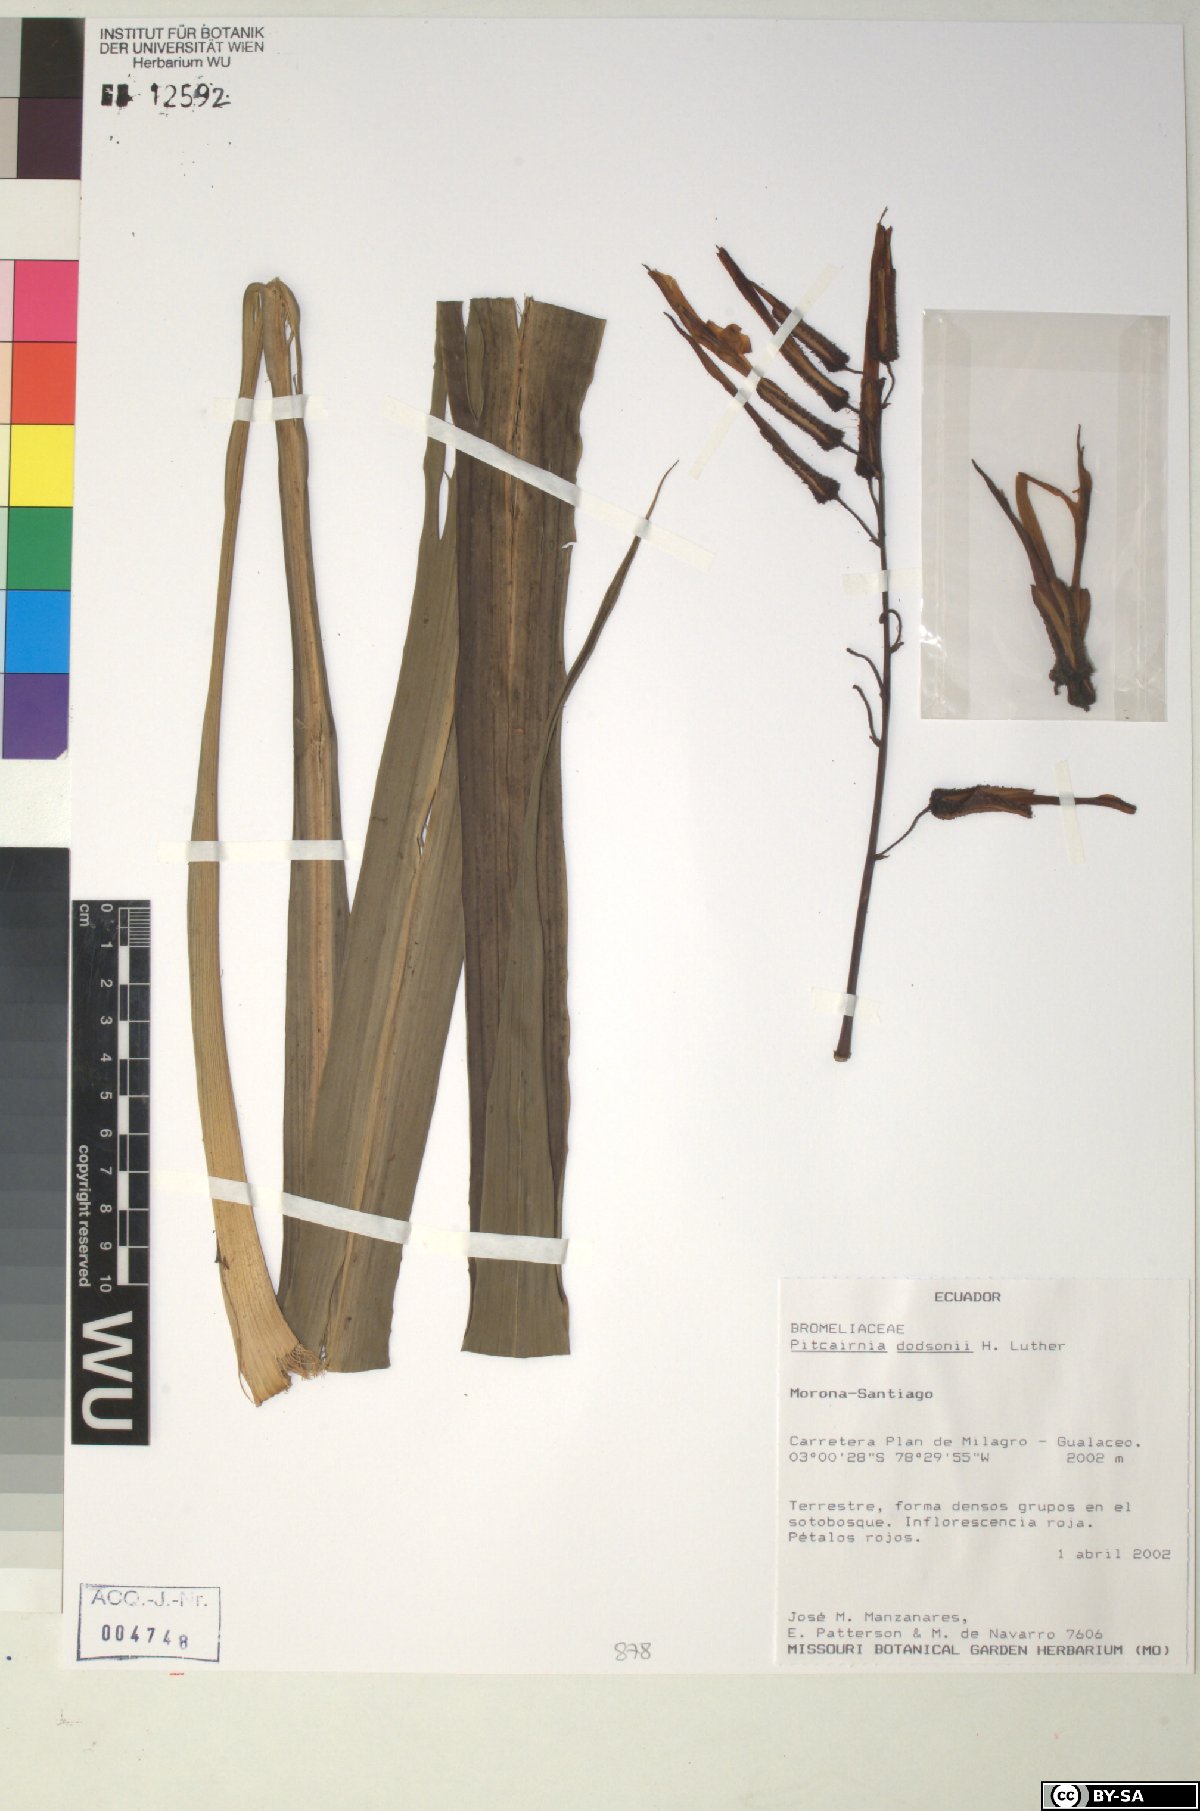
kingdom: Plantae
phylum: Tracheophyta
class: Liliopsida
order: Poales
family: Bromeliaceae
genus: Pitcairnia
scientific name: Pitcairnia dodsonii
